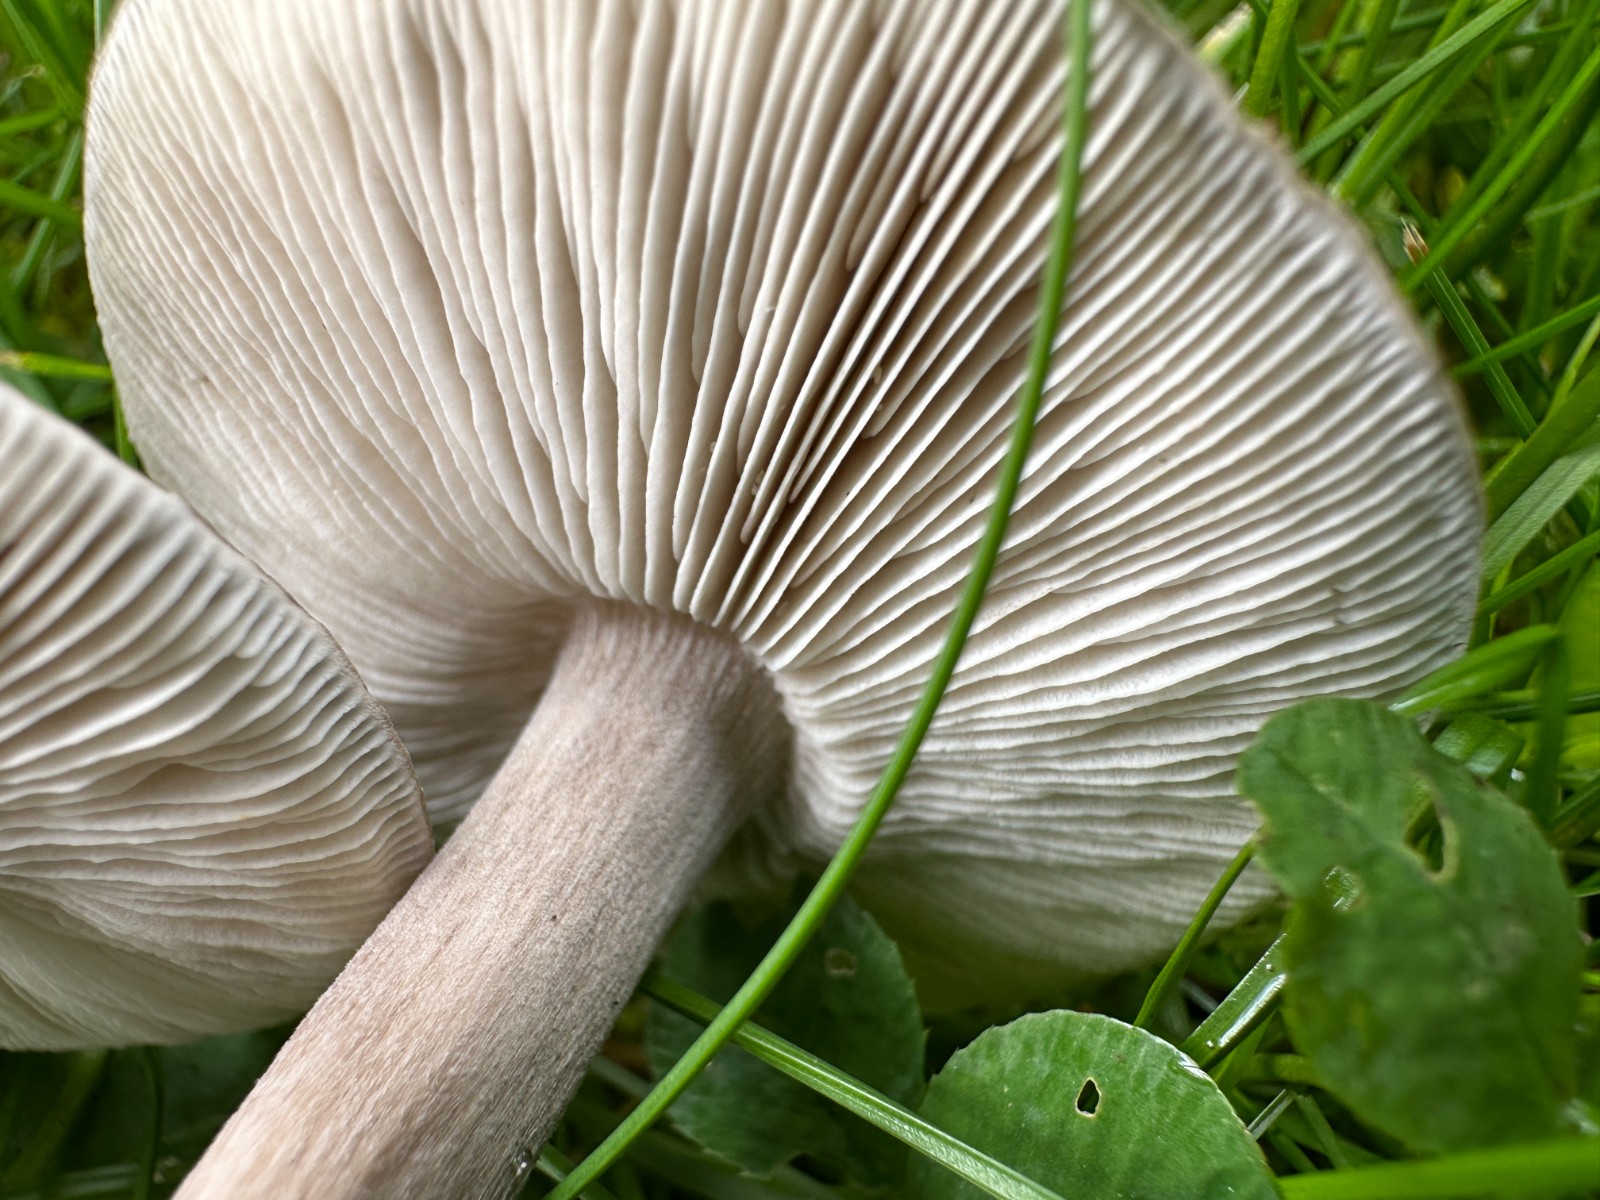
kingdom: Fungi
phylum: Basidiomycota
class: Agaricomycetes
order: Agaricales
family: Tricholomataceae
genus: Melanoleuca
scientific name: Melanoleuca
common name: munkehat
